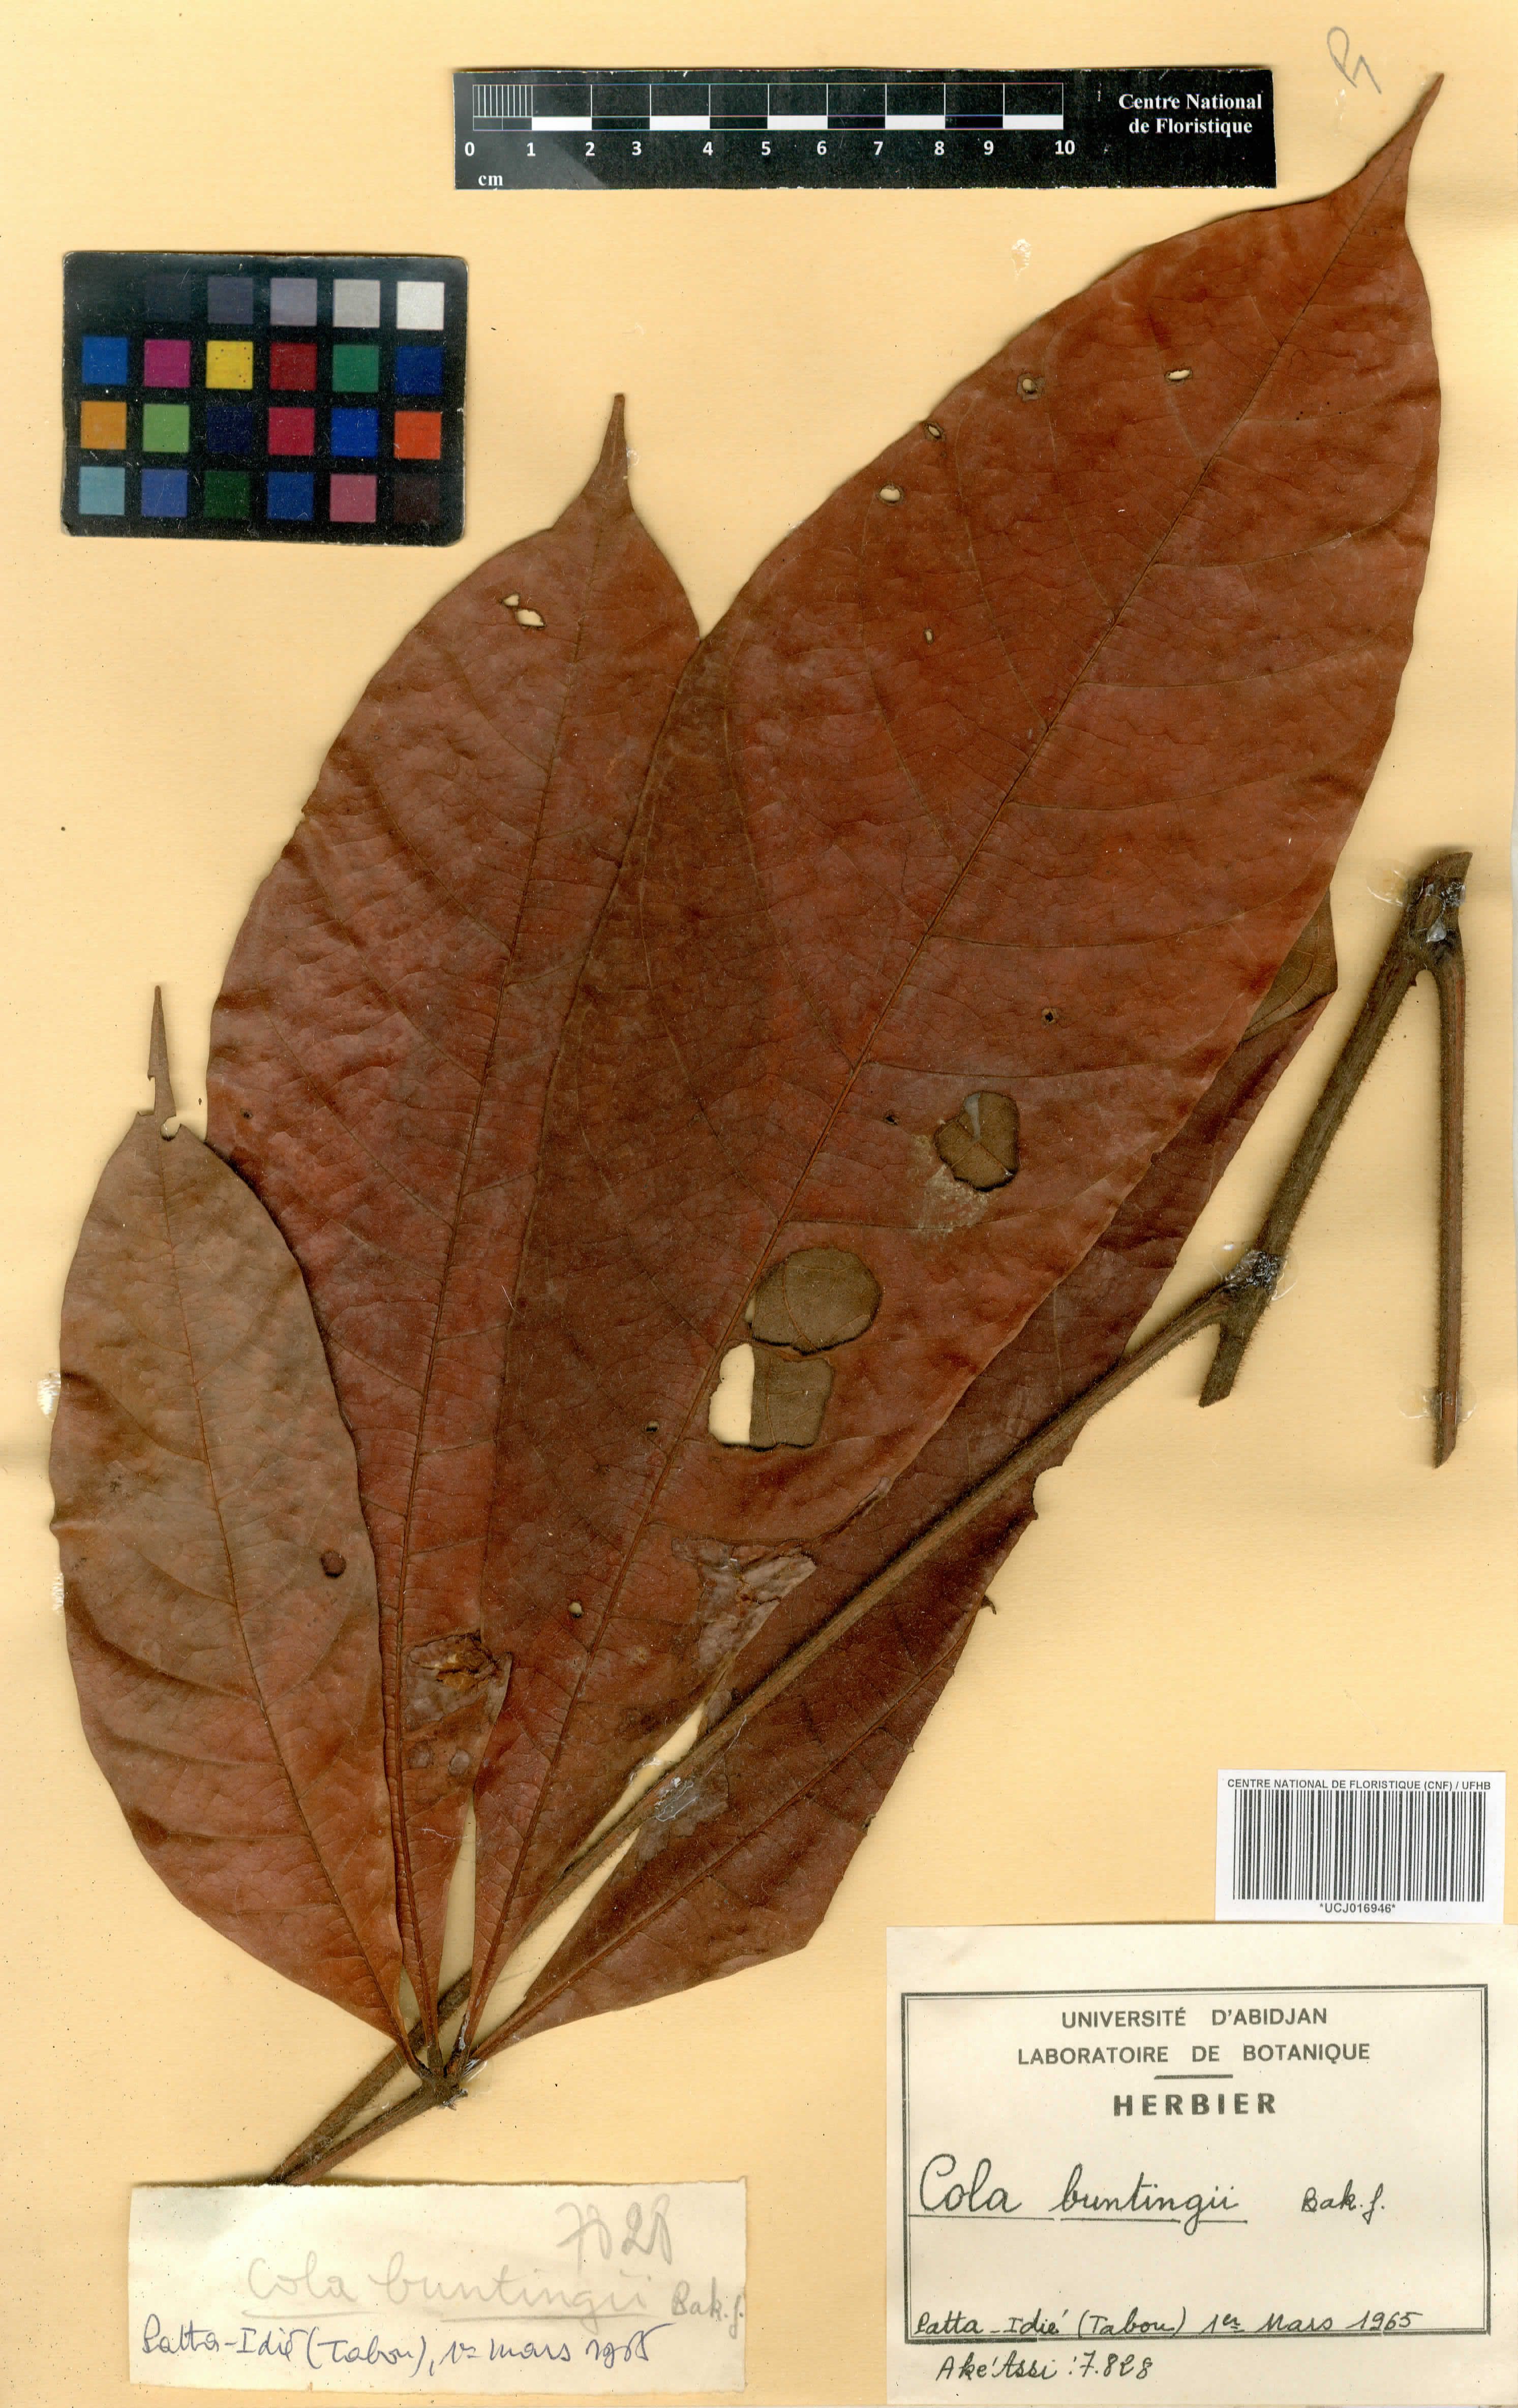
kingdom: Plantae
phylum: Tracheophyta
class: Magnoliopsida
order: Malvales
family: Malvaceae
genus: Cola
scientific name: Cola buntingii
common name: Bunting's cola
